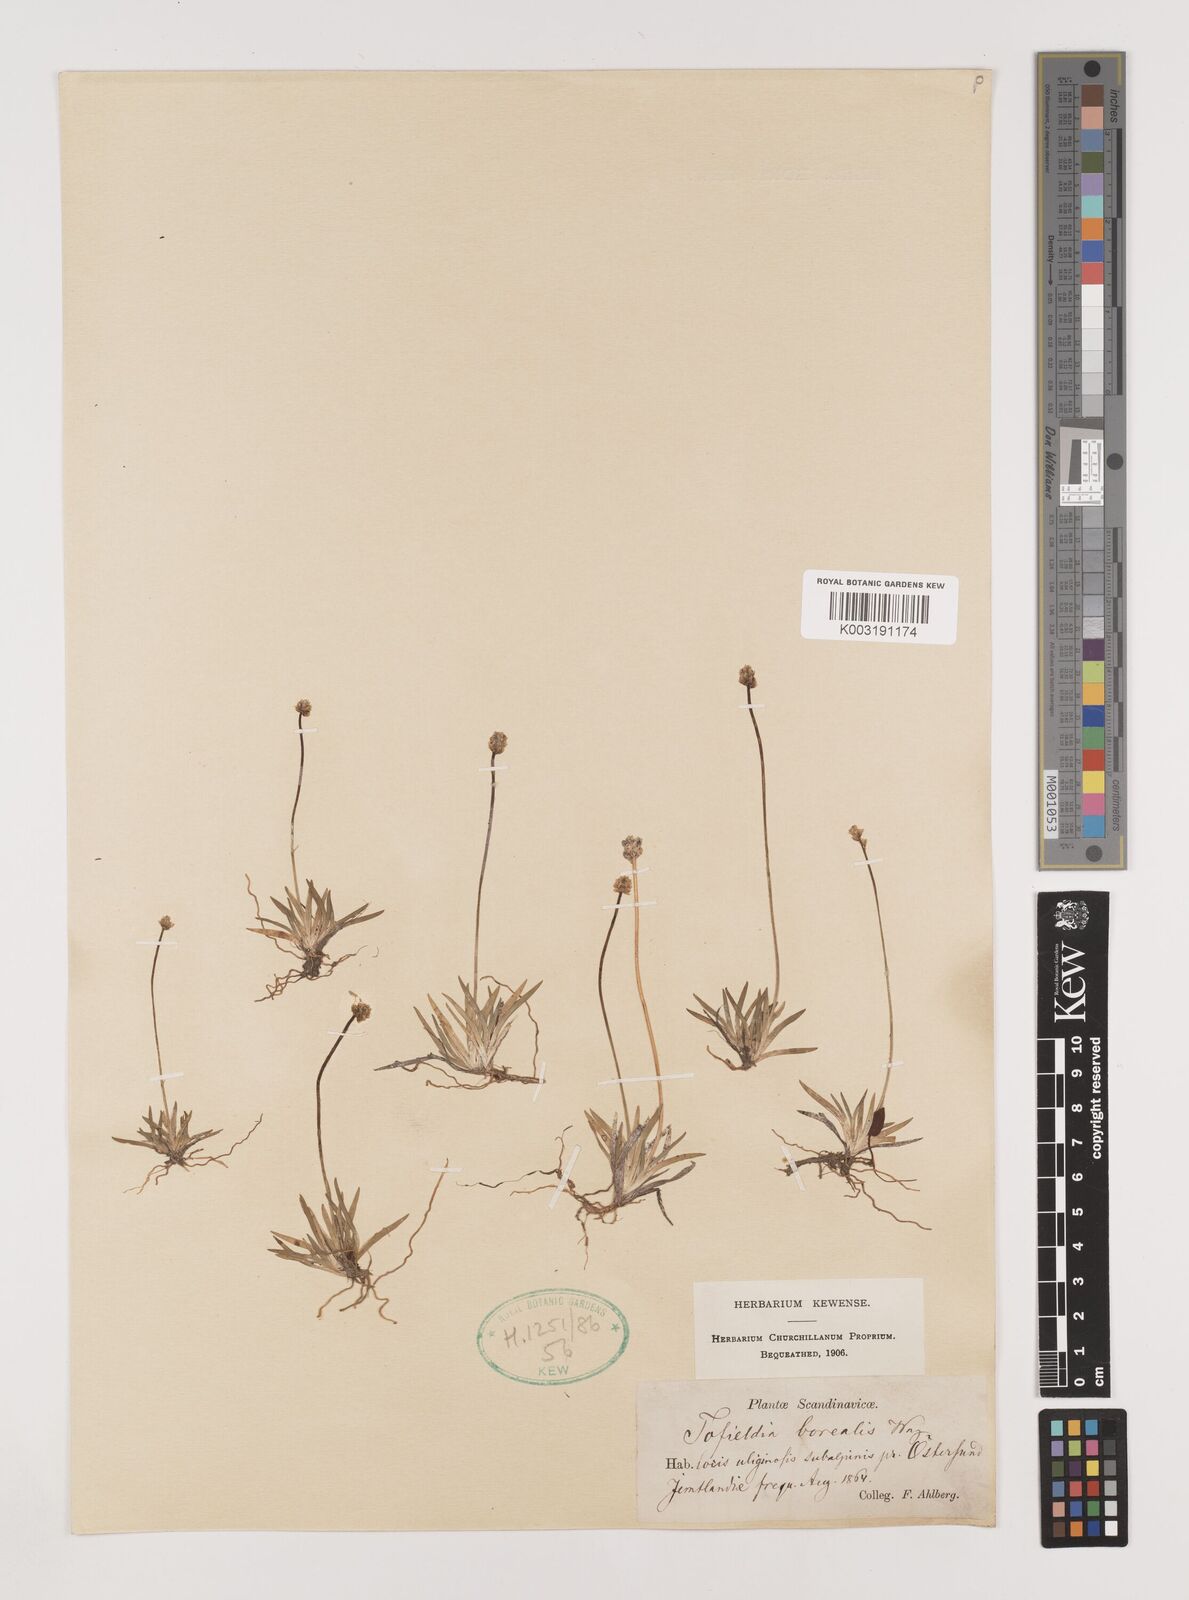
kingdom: Plantae
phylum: Tracheophyta
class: Liliopsida
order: Alismatales
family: Tofieldiaceae
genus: Tofieldia
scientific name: Tofieldia pusilla
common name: Scottish false asphodel
